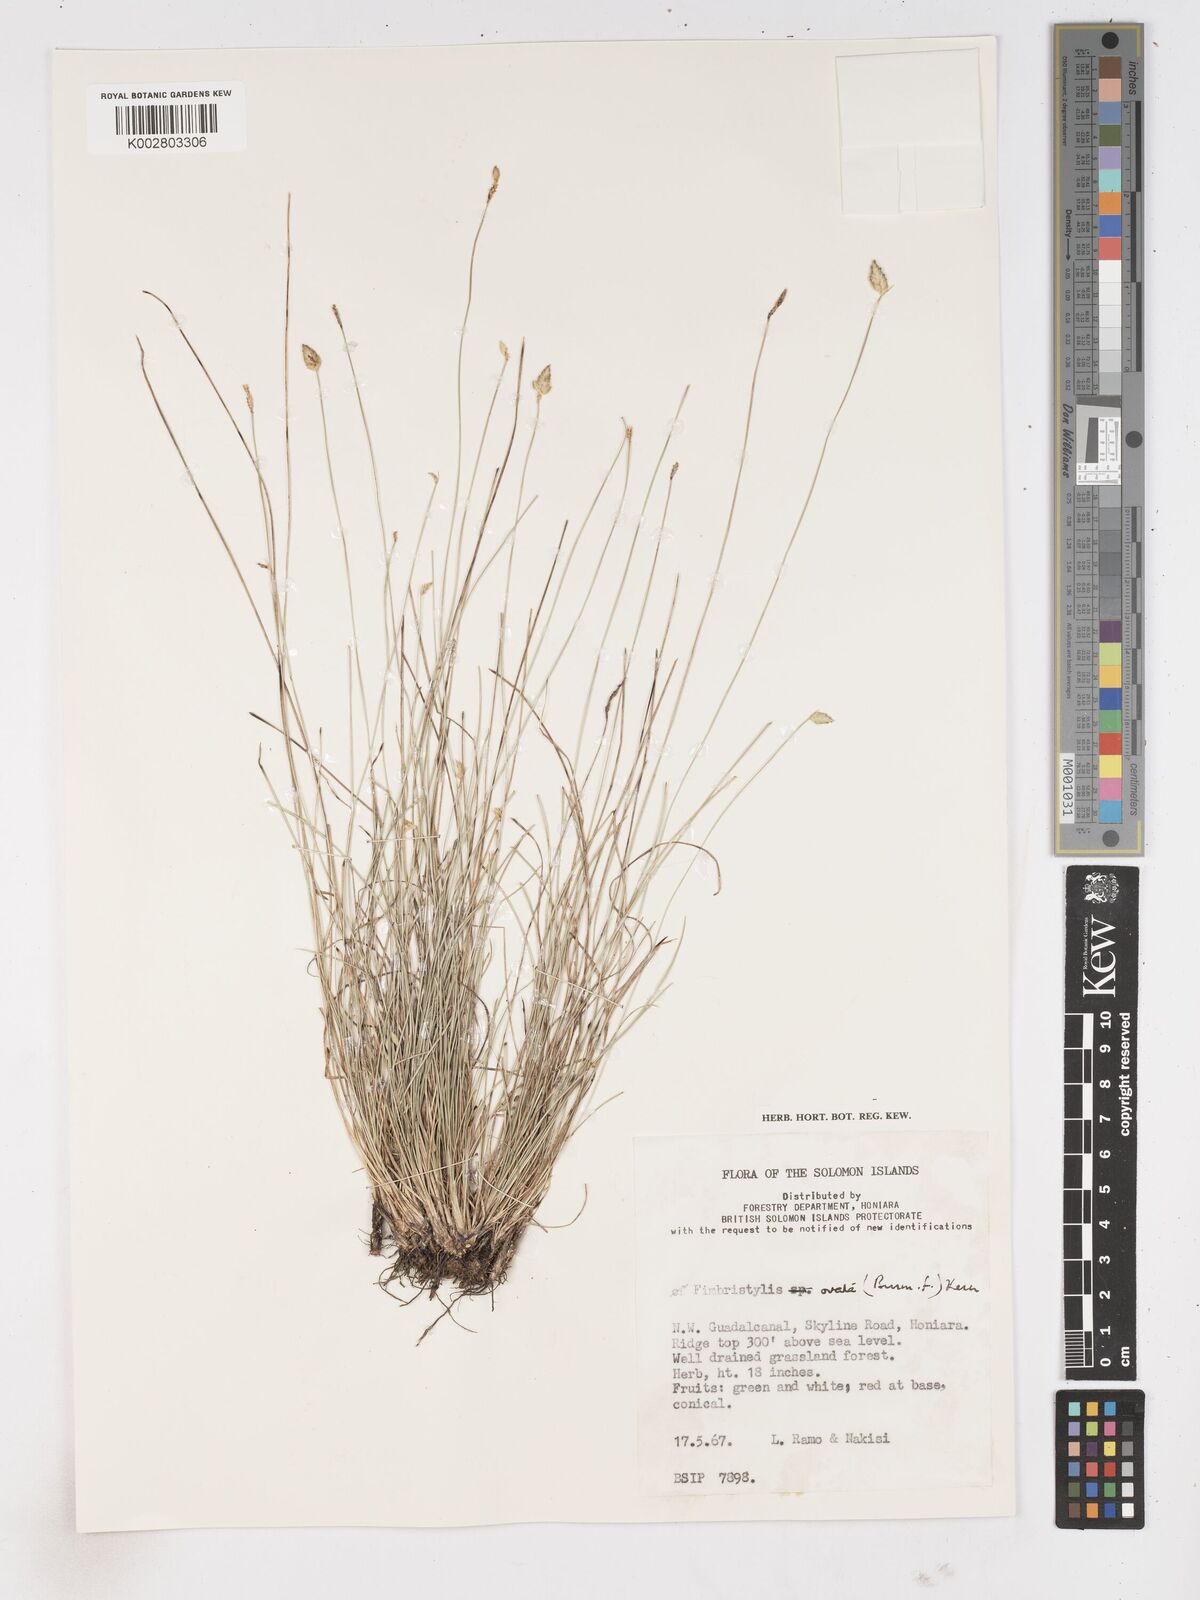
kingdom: Plantae
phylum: Tracheophyta
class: Liliopsida
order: Poales
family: Cyperaceae
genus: Abildgaardia
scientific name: Abildgaardia ovata
